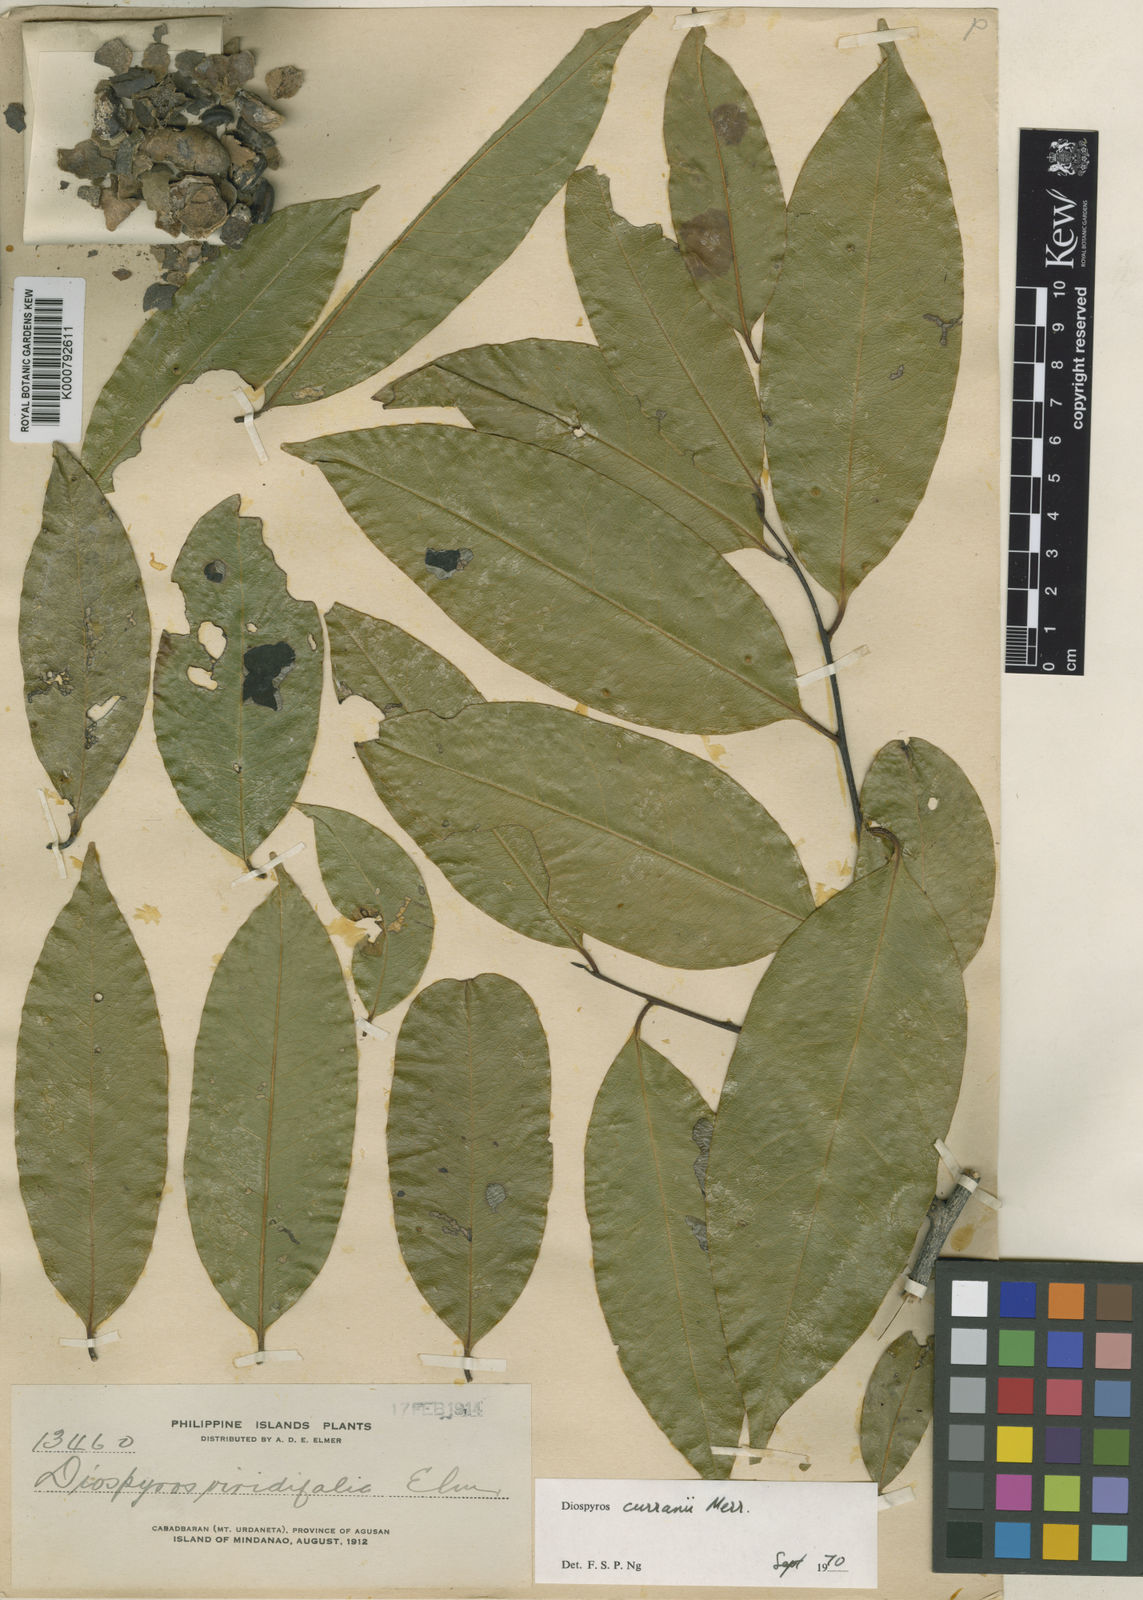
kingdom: Plantae
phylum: Tracheophyta
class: Magnoliopsida
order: Ericales
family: Ebenaceae
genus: Diospyros
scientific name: Diospyros curranii
